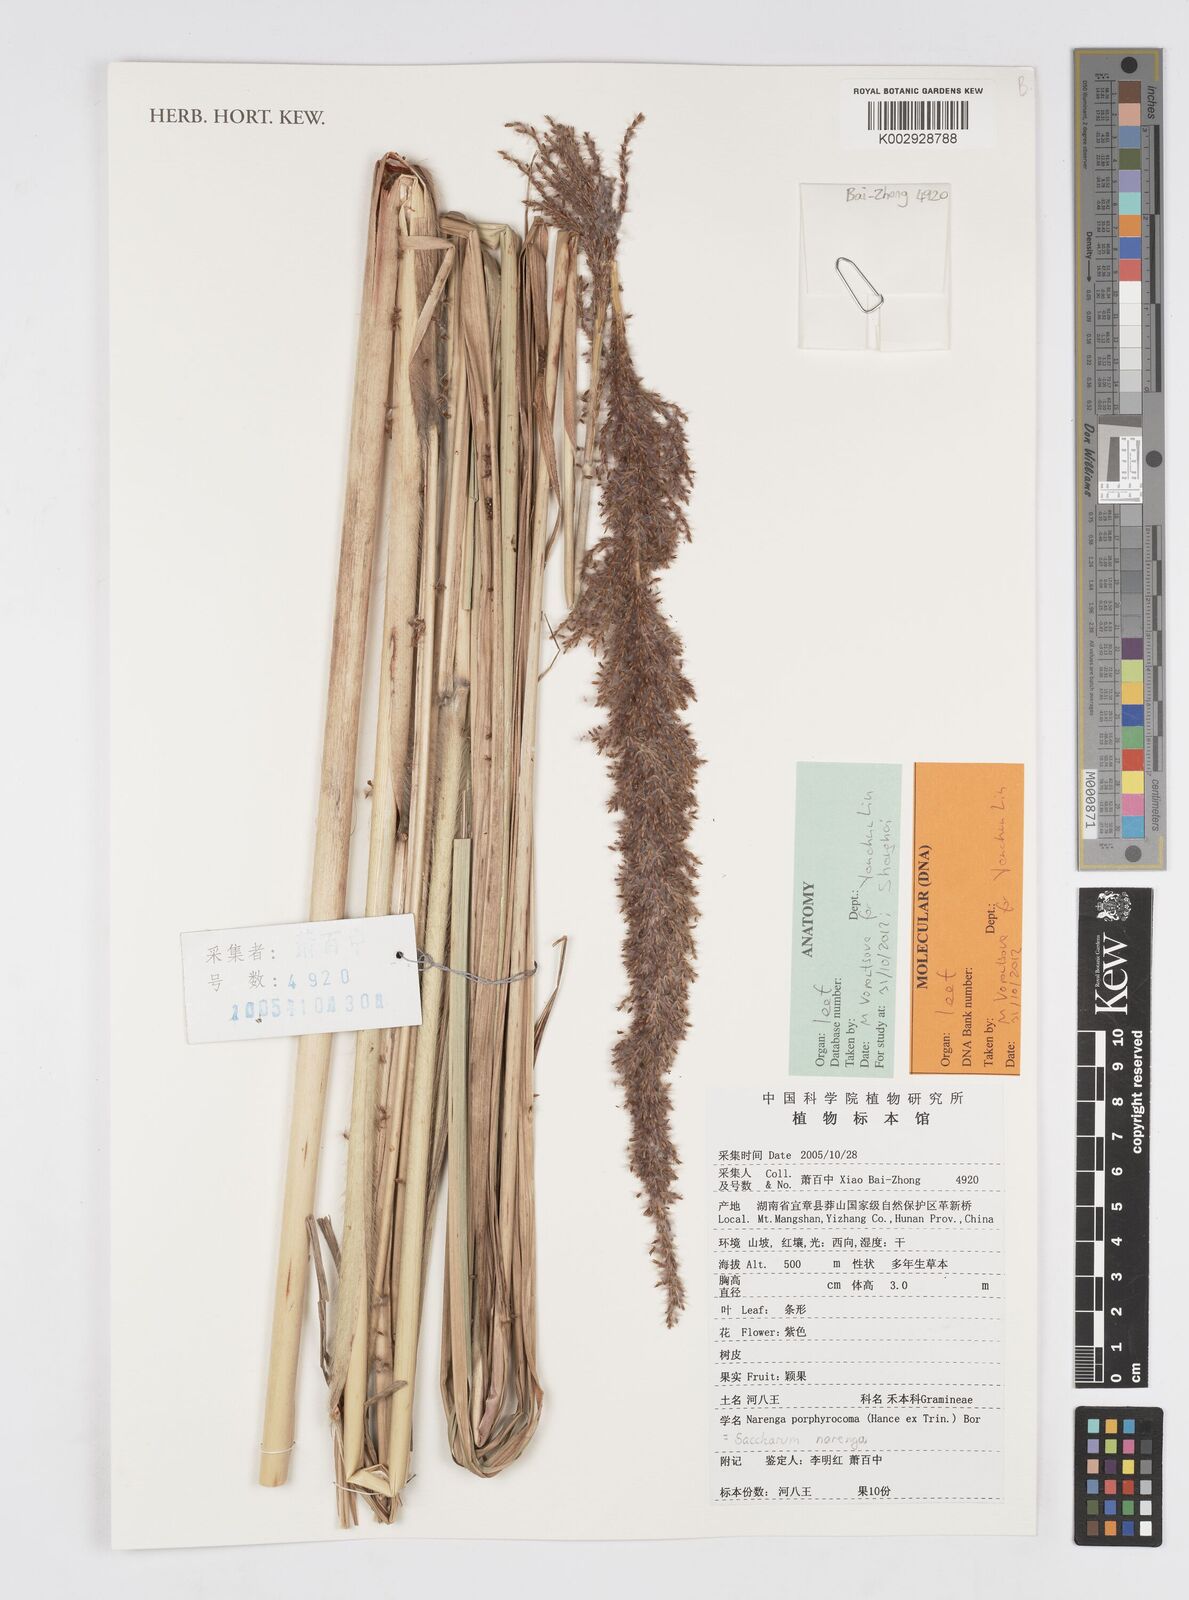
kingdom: Plantae
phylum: Tracheophyta
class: Liliopsida
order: Poales
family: Poaceae
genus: Narenga
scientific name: Narenga porphyrocoma
